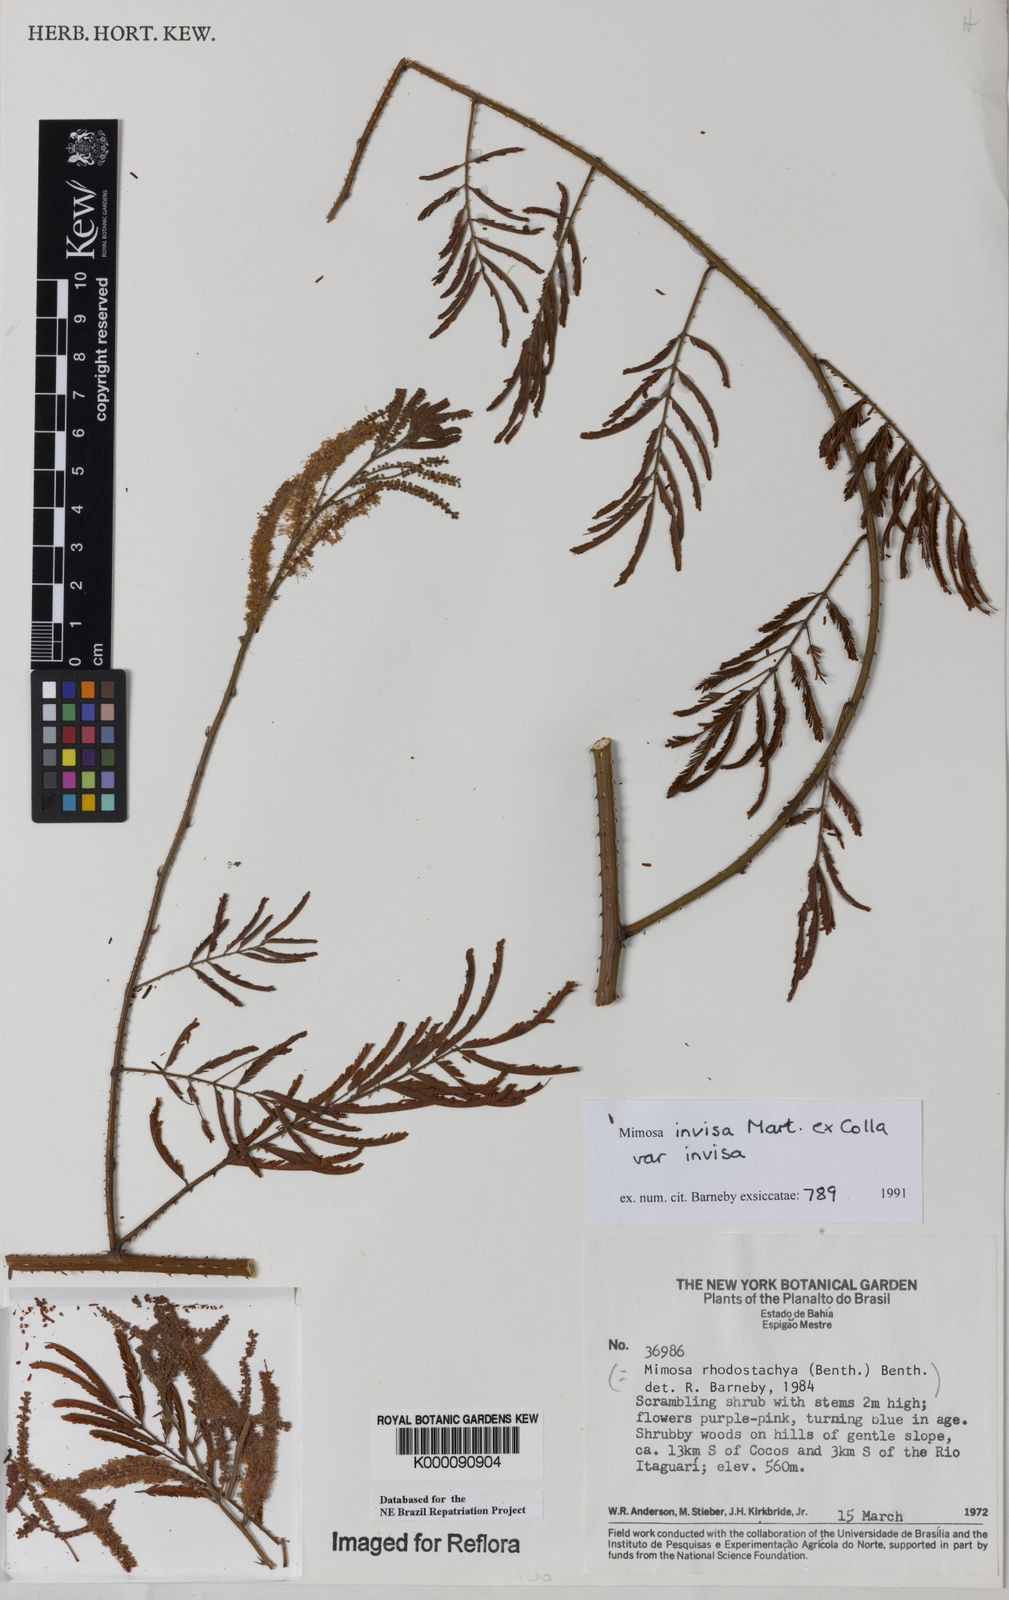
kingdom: Plantae
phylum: Tracheophyta
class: Magnoliopsida
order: Fabales
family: Fabaceae
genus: Mimosa
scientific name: Mimosa invisa
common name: Creeping sensitive-plant
